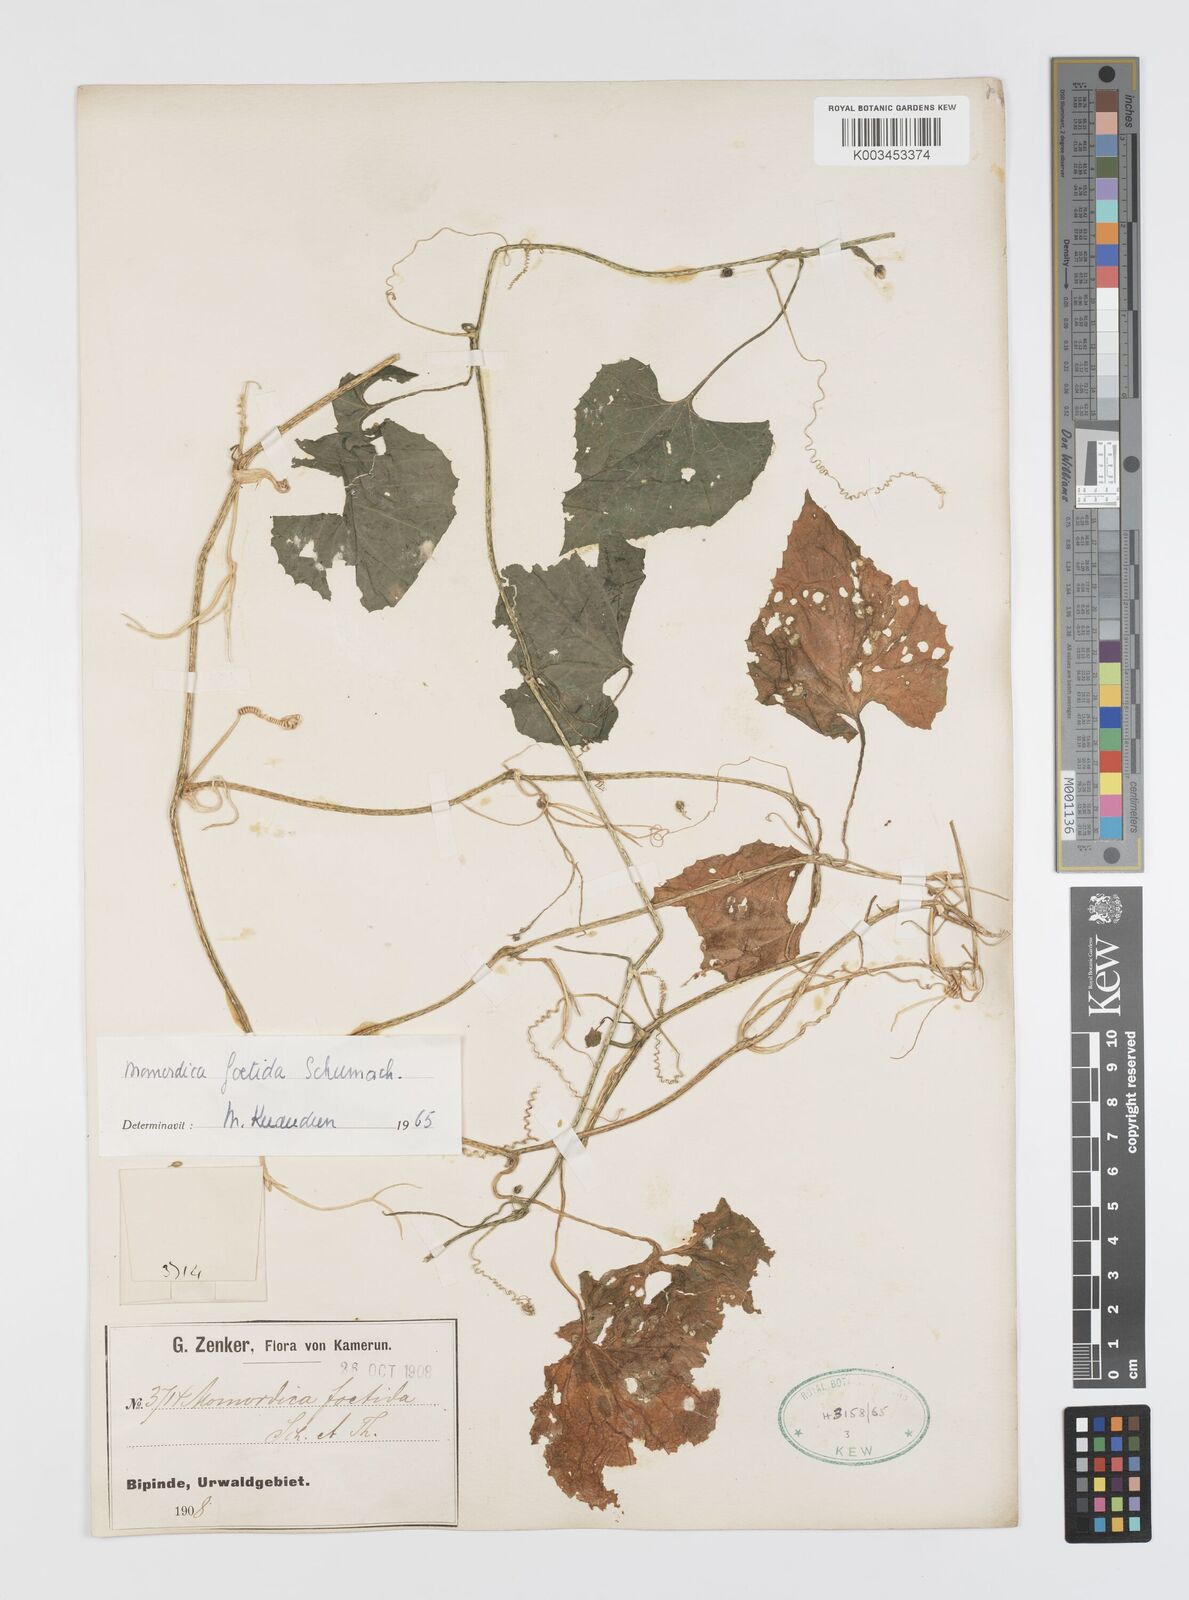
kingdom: Plantae
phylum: Tracheophyta
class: Magnoliopsida
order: Cucurbitales
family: Cucurbitaceae
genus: Momordica
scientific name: Momordica foetida
